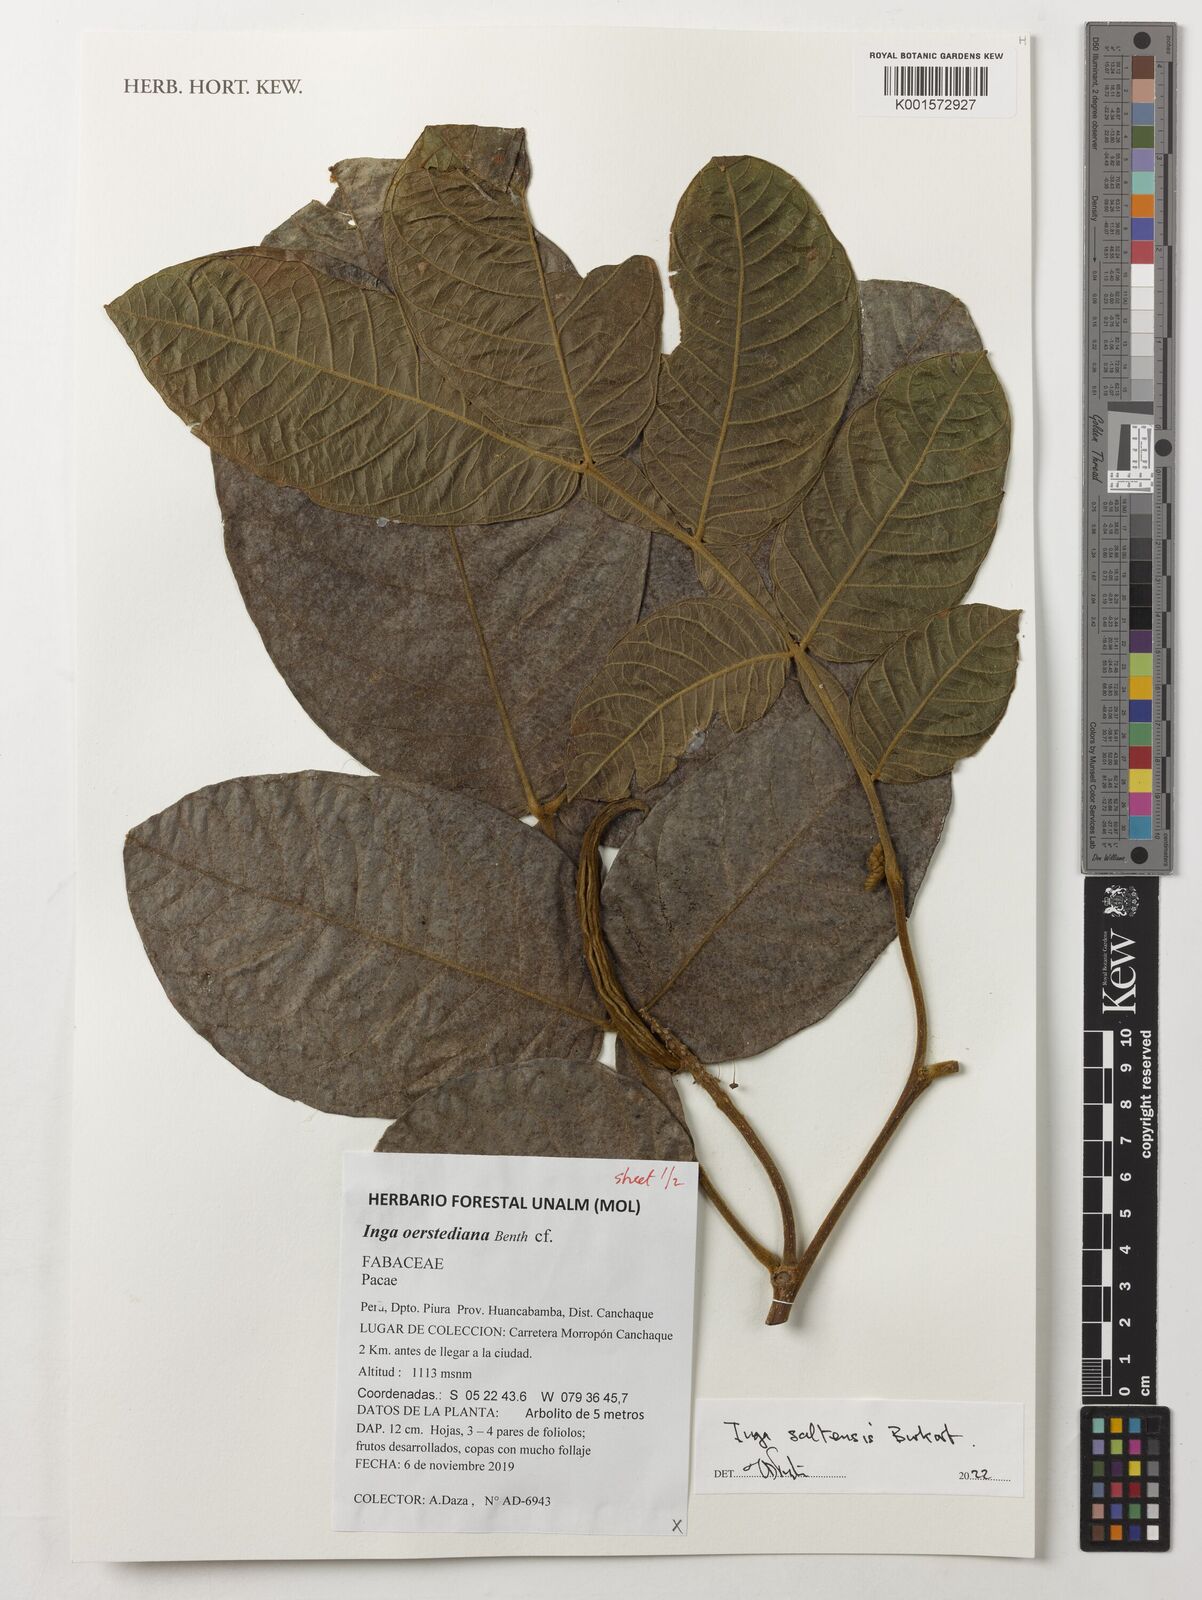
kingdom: Plantae
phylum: Tracheophyta
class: Magnoliopsida
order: Fabales
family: Fabaceae
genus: Inga
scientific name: Inga saltensis
